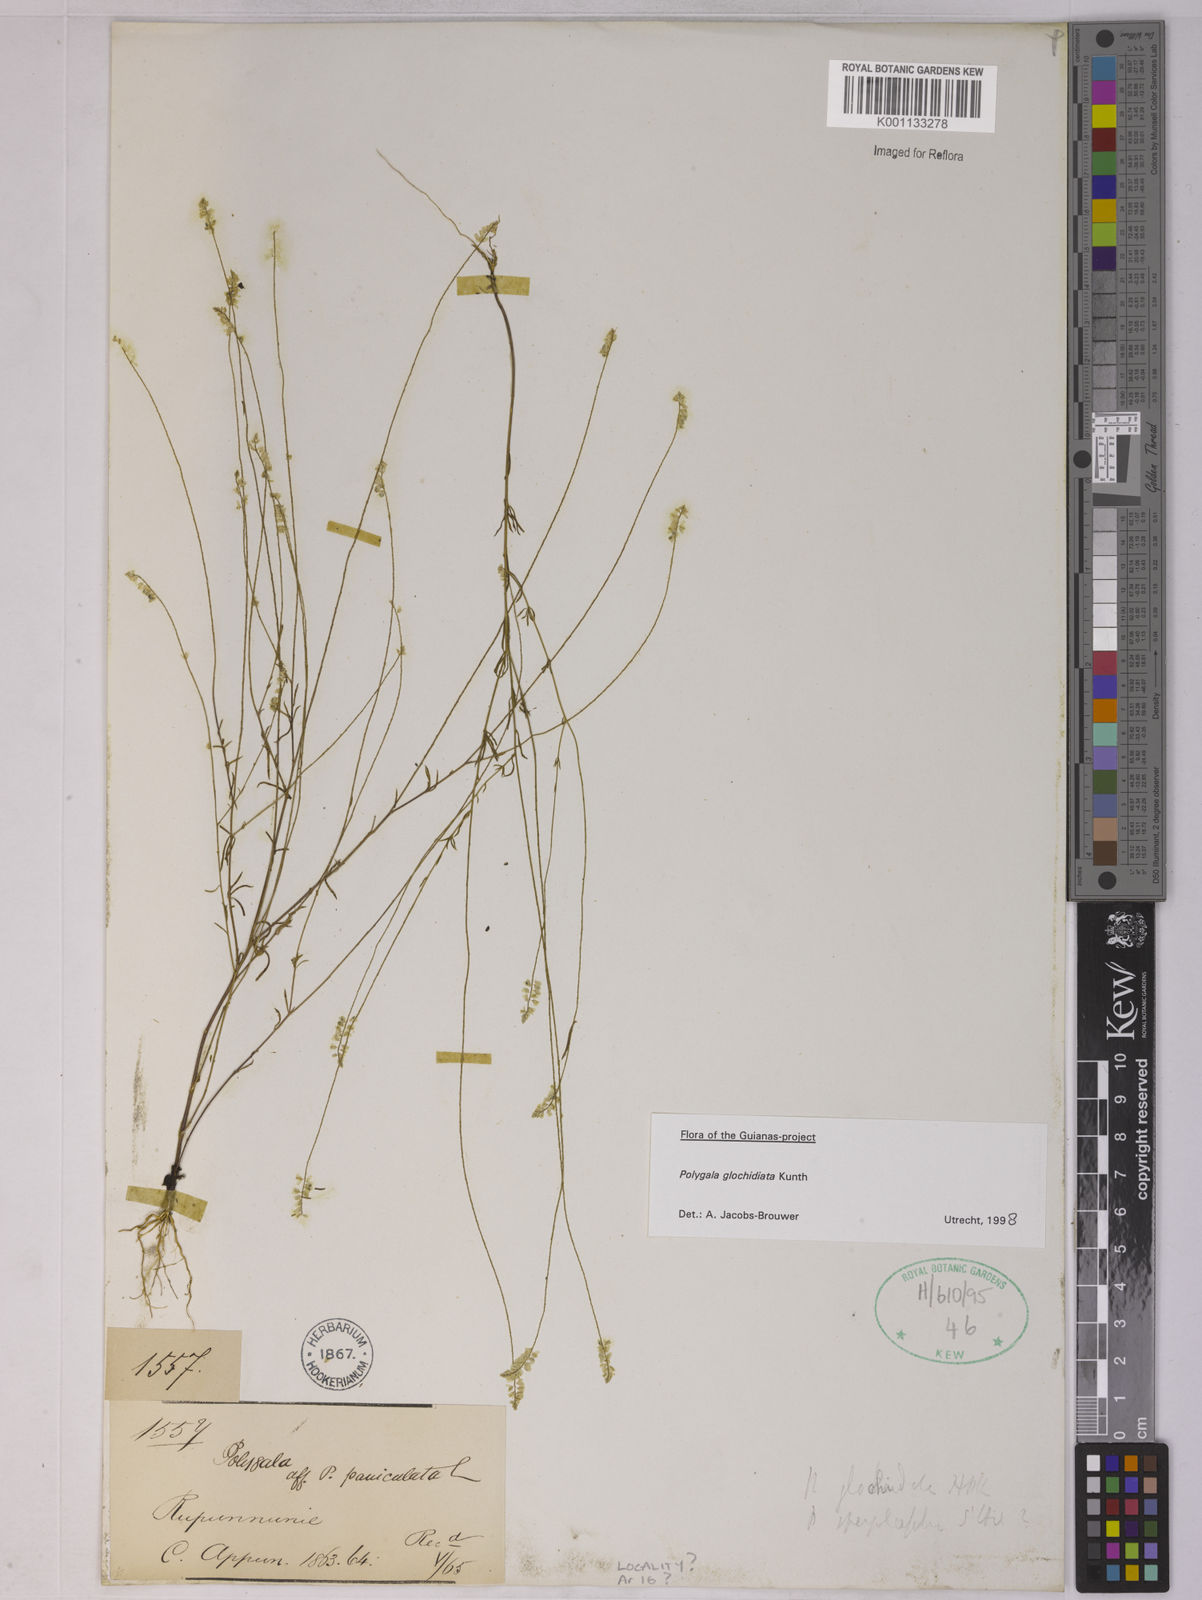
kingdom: Plantae
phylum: Tracheophyta
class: Magnoliopsida
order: Fabales
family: Polygalaceae
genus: Polygala
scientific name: Polygala glochidiata
